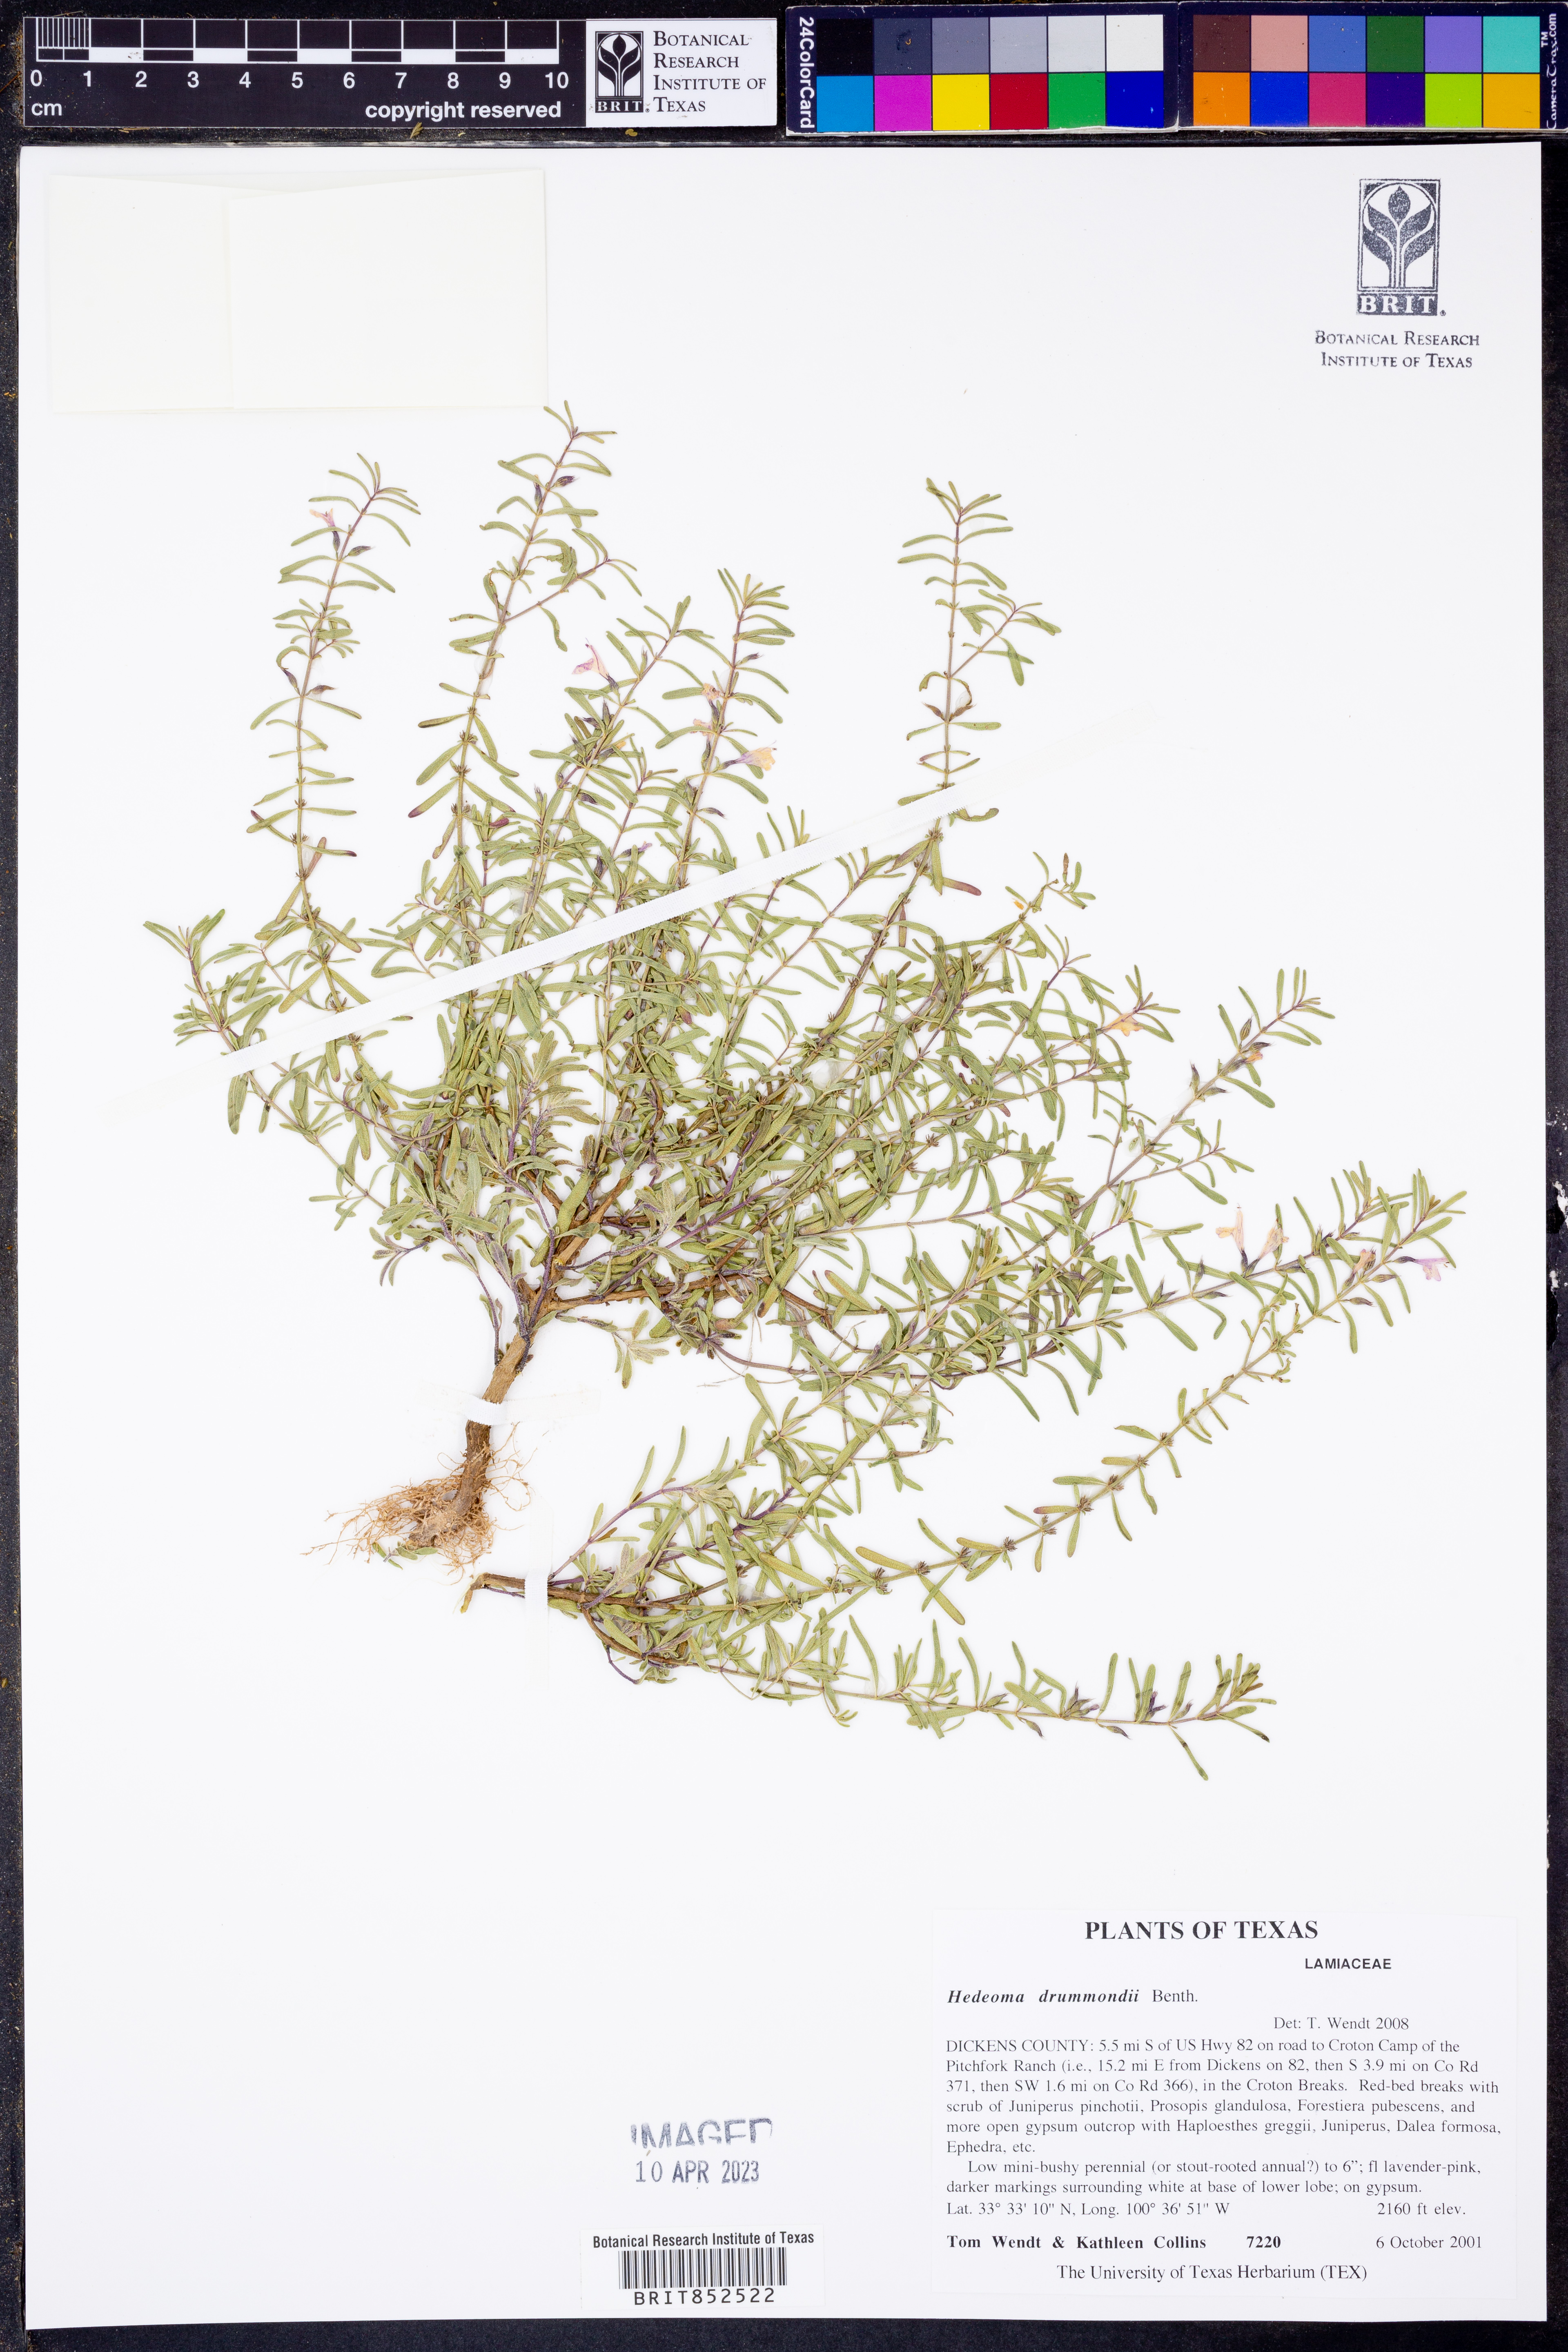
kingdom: Plantae
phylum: Tracheophyta
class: Magnoliopsida
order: Lamiales
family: Lamiaceae
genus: Hedeoma
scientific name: Hedeoma drummondii
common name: New mexico pennyroyal
